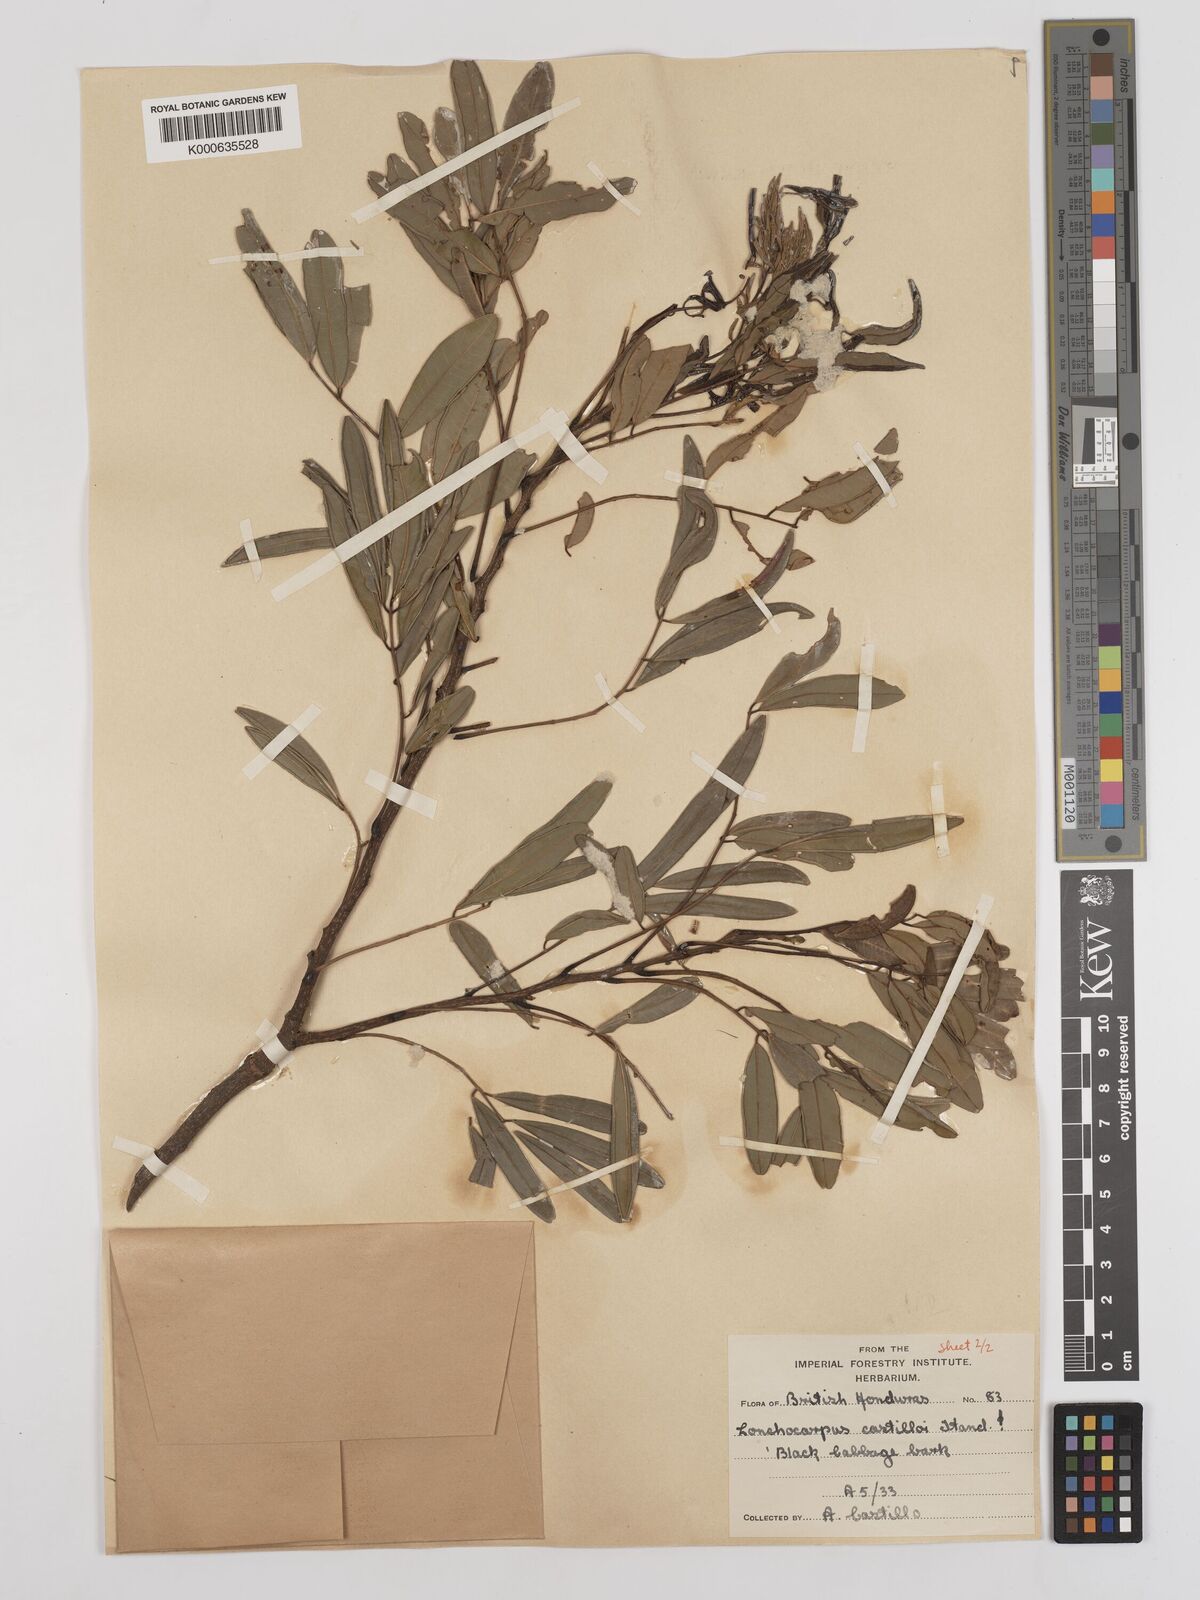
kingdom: Plantae
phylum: Tracheophyta
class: Magnoliopsida
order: Fabales
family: Fabaceae
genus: Lonchocarpus
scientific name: Lonchocarpus castilloi
